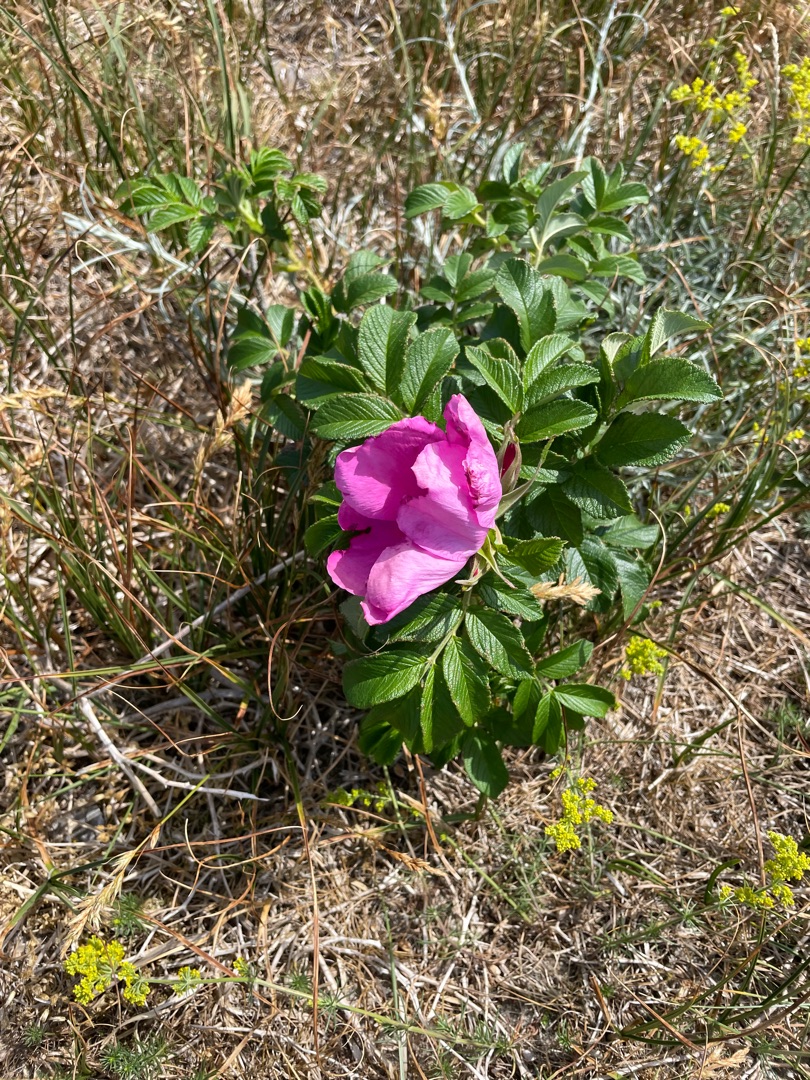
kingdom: Plantae
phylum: Tracheophyta
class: Magnoliopsida
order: Rosales
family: Rosaceae
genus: Rosa
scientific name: Rosa rugosa
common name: Rynket rose
